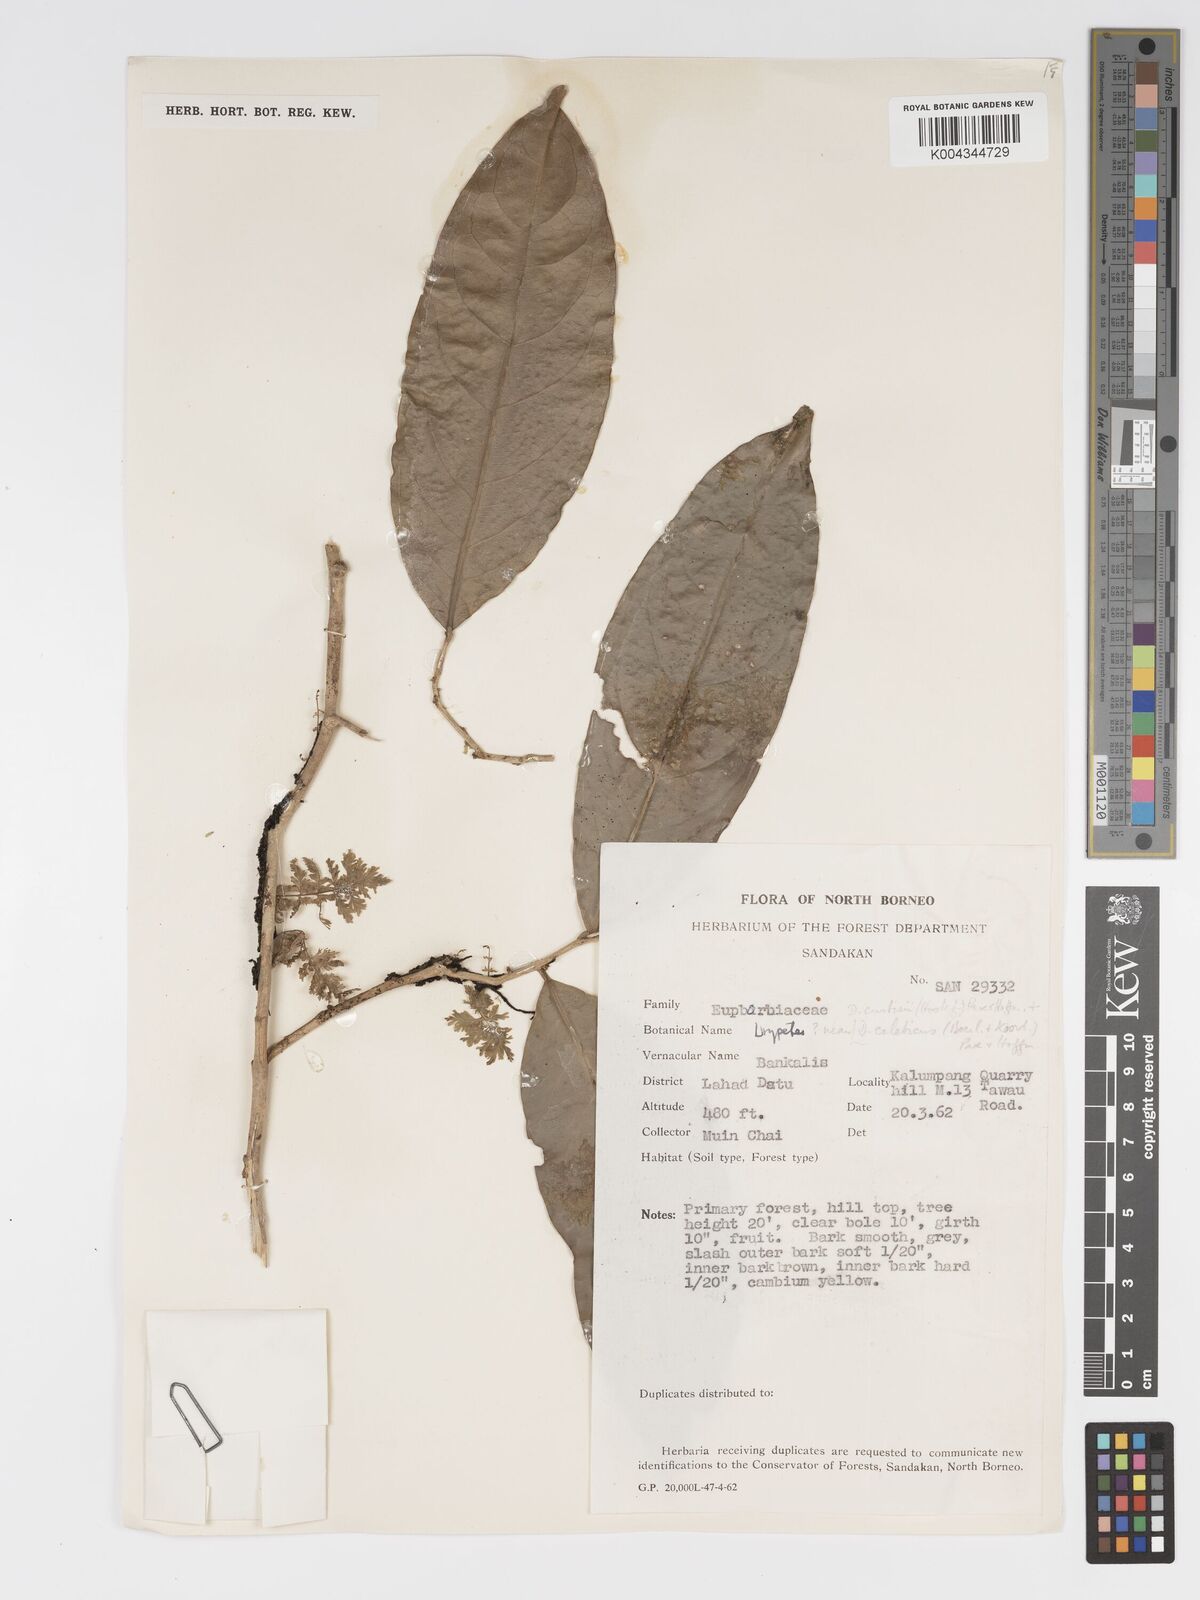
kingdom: Plantae
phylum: Tracheophyta
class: Magnoliopsida
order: Malpighiales
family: Putranjivaceae
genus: Drypetes
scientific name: Drypetes curtisii
